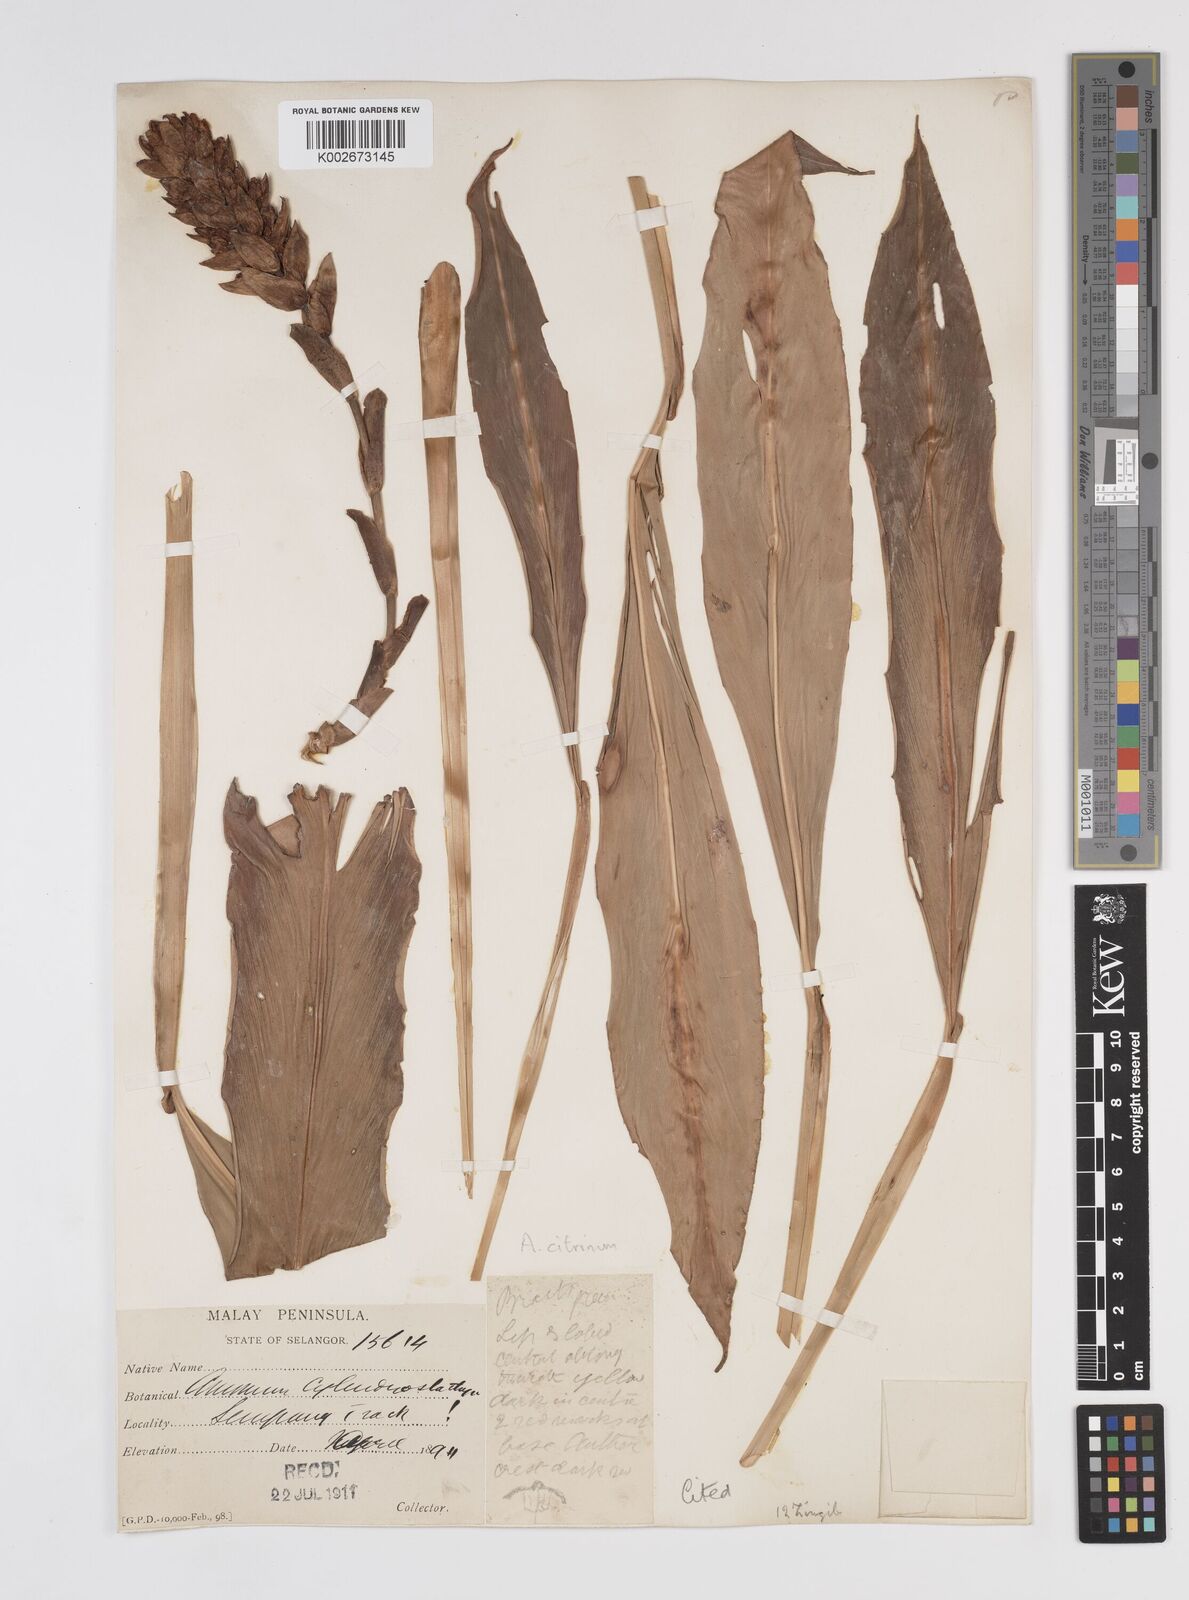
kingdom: Plantae
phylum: Tracheophyta
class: Liliopsida
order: Zingiberales
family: Zingiberaceae
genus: Conamomum
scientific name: Conamomum citrinum
